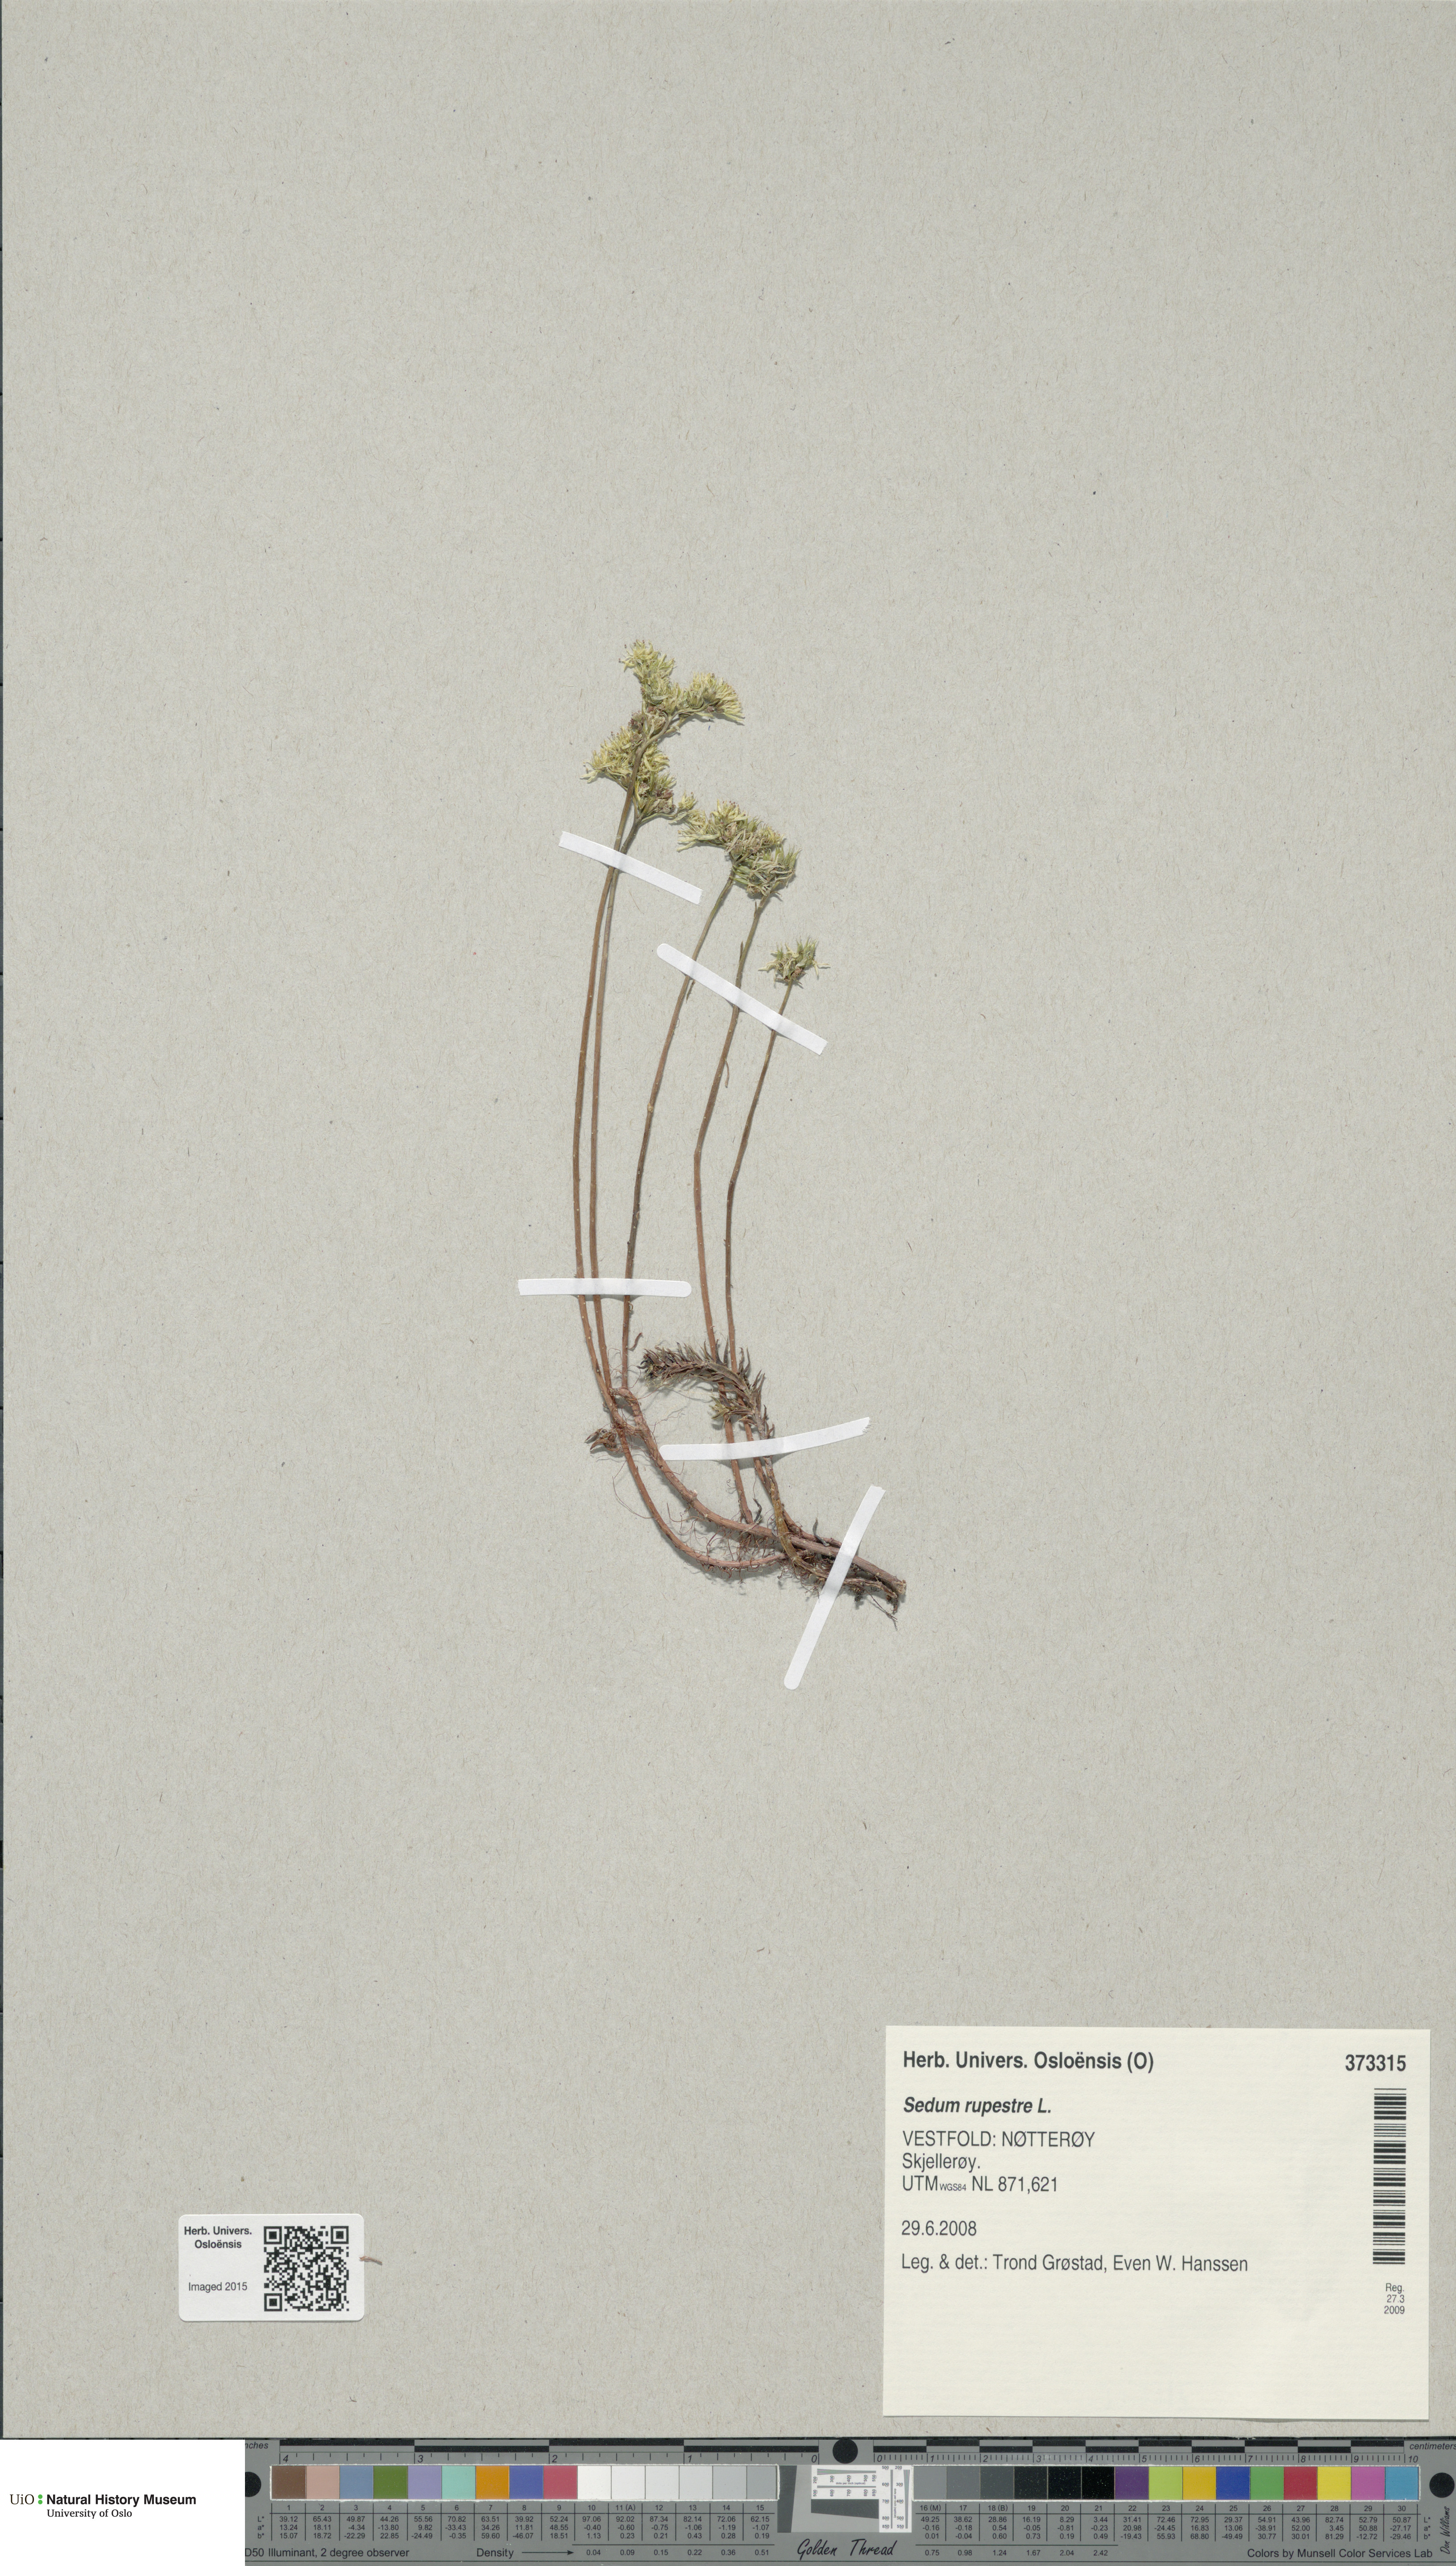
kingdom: Plantae
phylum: Tracheophyta
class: Magnoliopsida
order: Saxifragales
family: Crassulaceae
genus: Petrosedum
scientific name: Petrosedum rupestre
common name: Jenny's stonecrop
